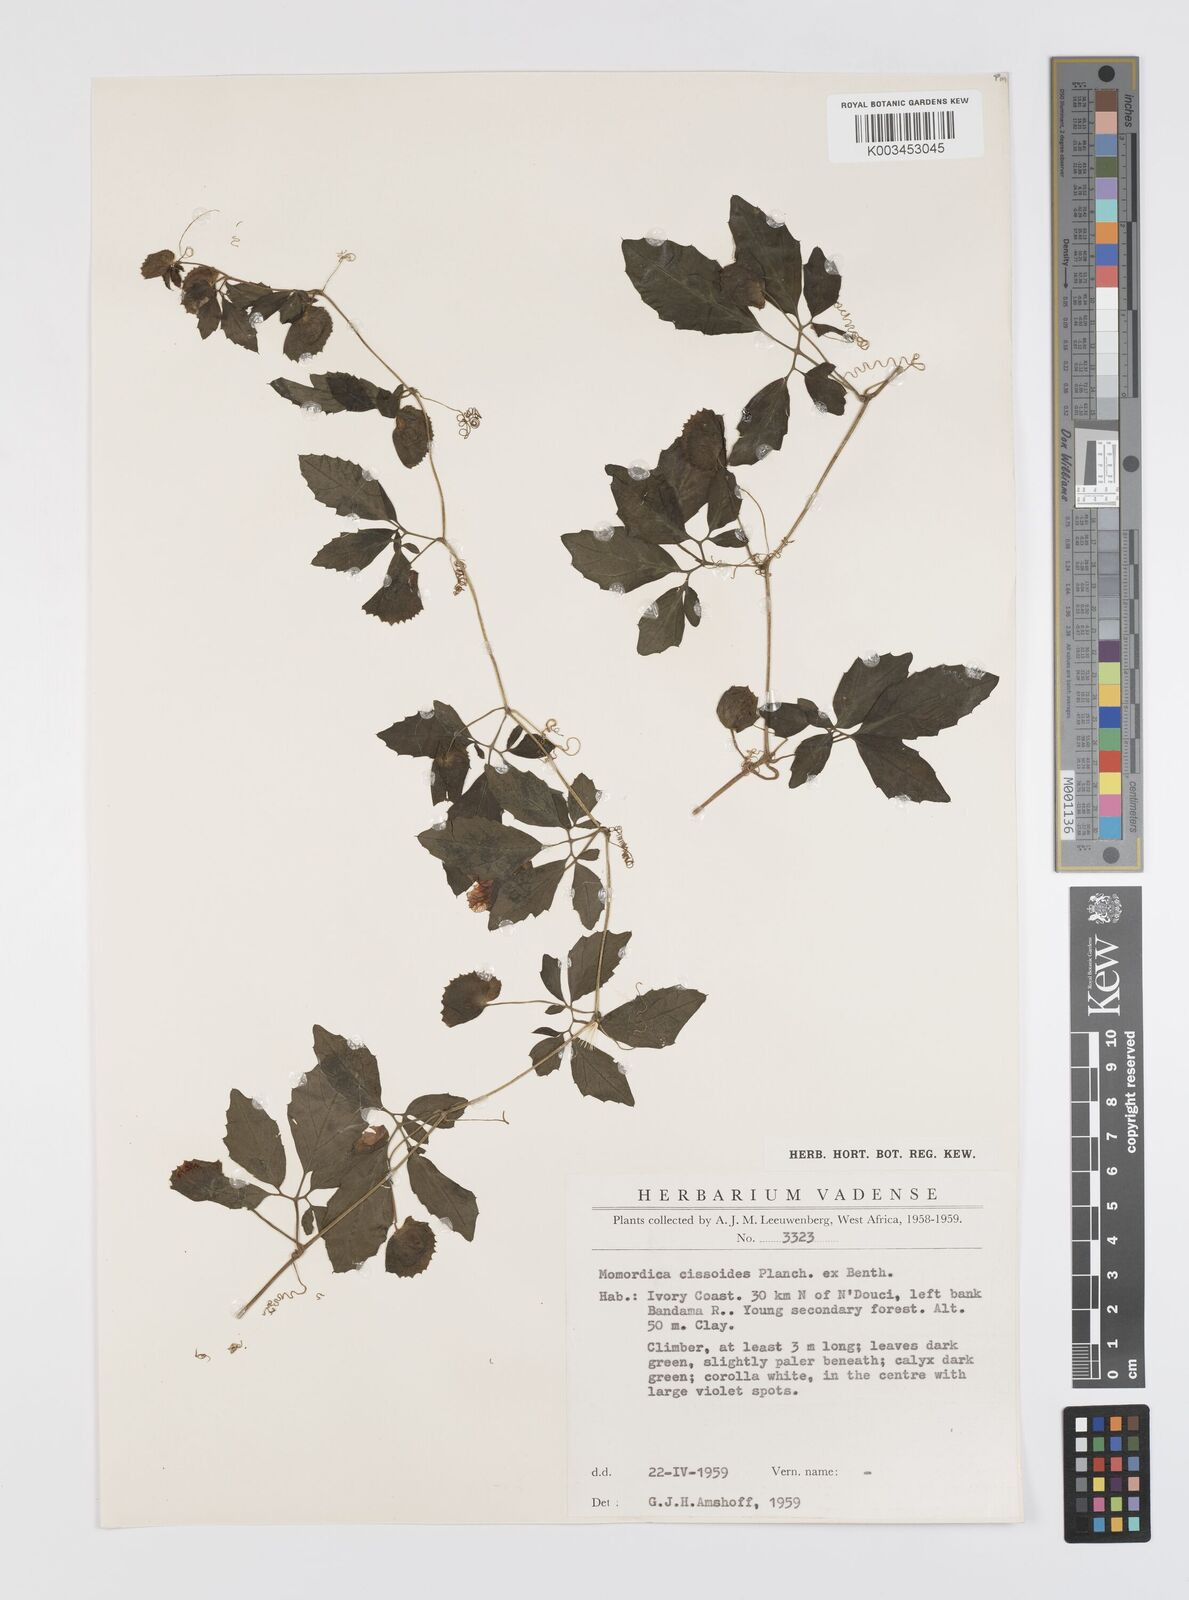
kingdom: Plantae
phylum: Tracheophyta
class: Magnoliopsida
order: Cucurbitales
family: Cucurbitaceae
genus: Momordica
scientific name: Momordica cissoides
